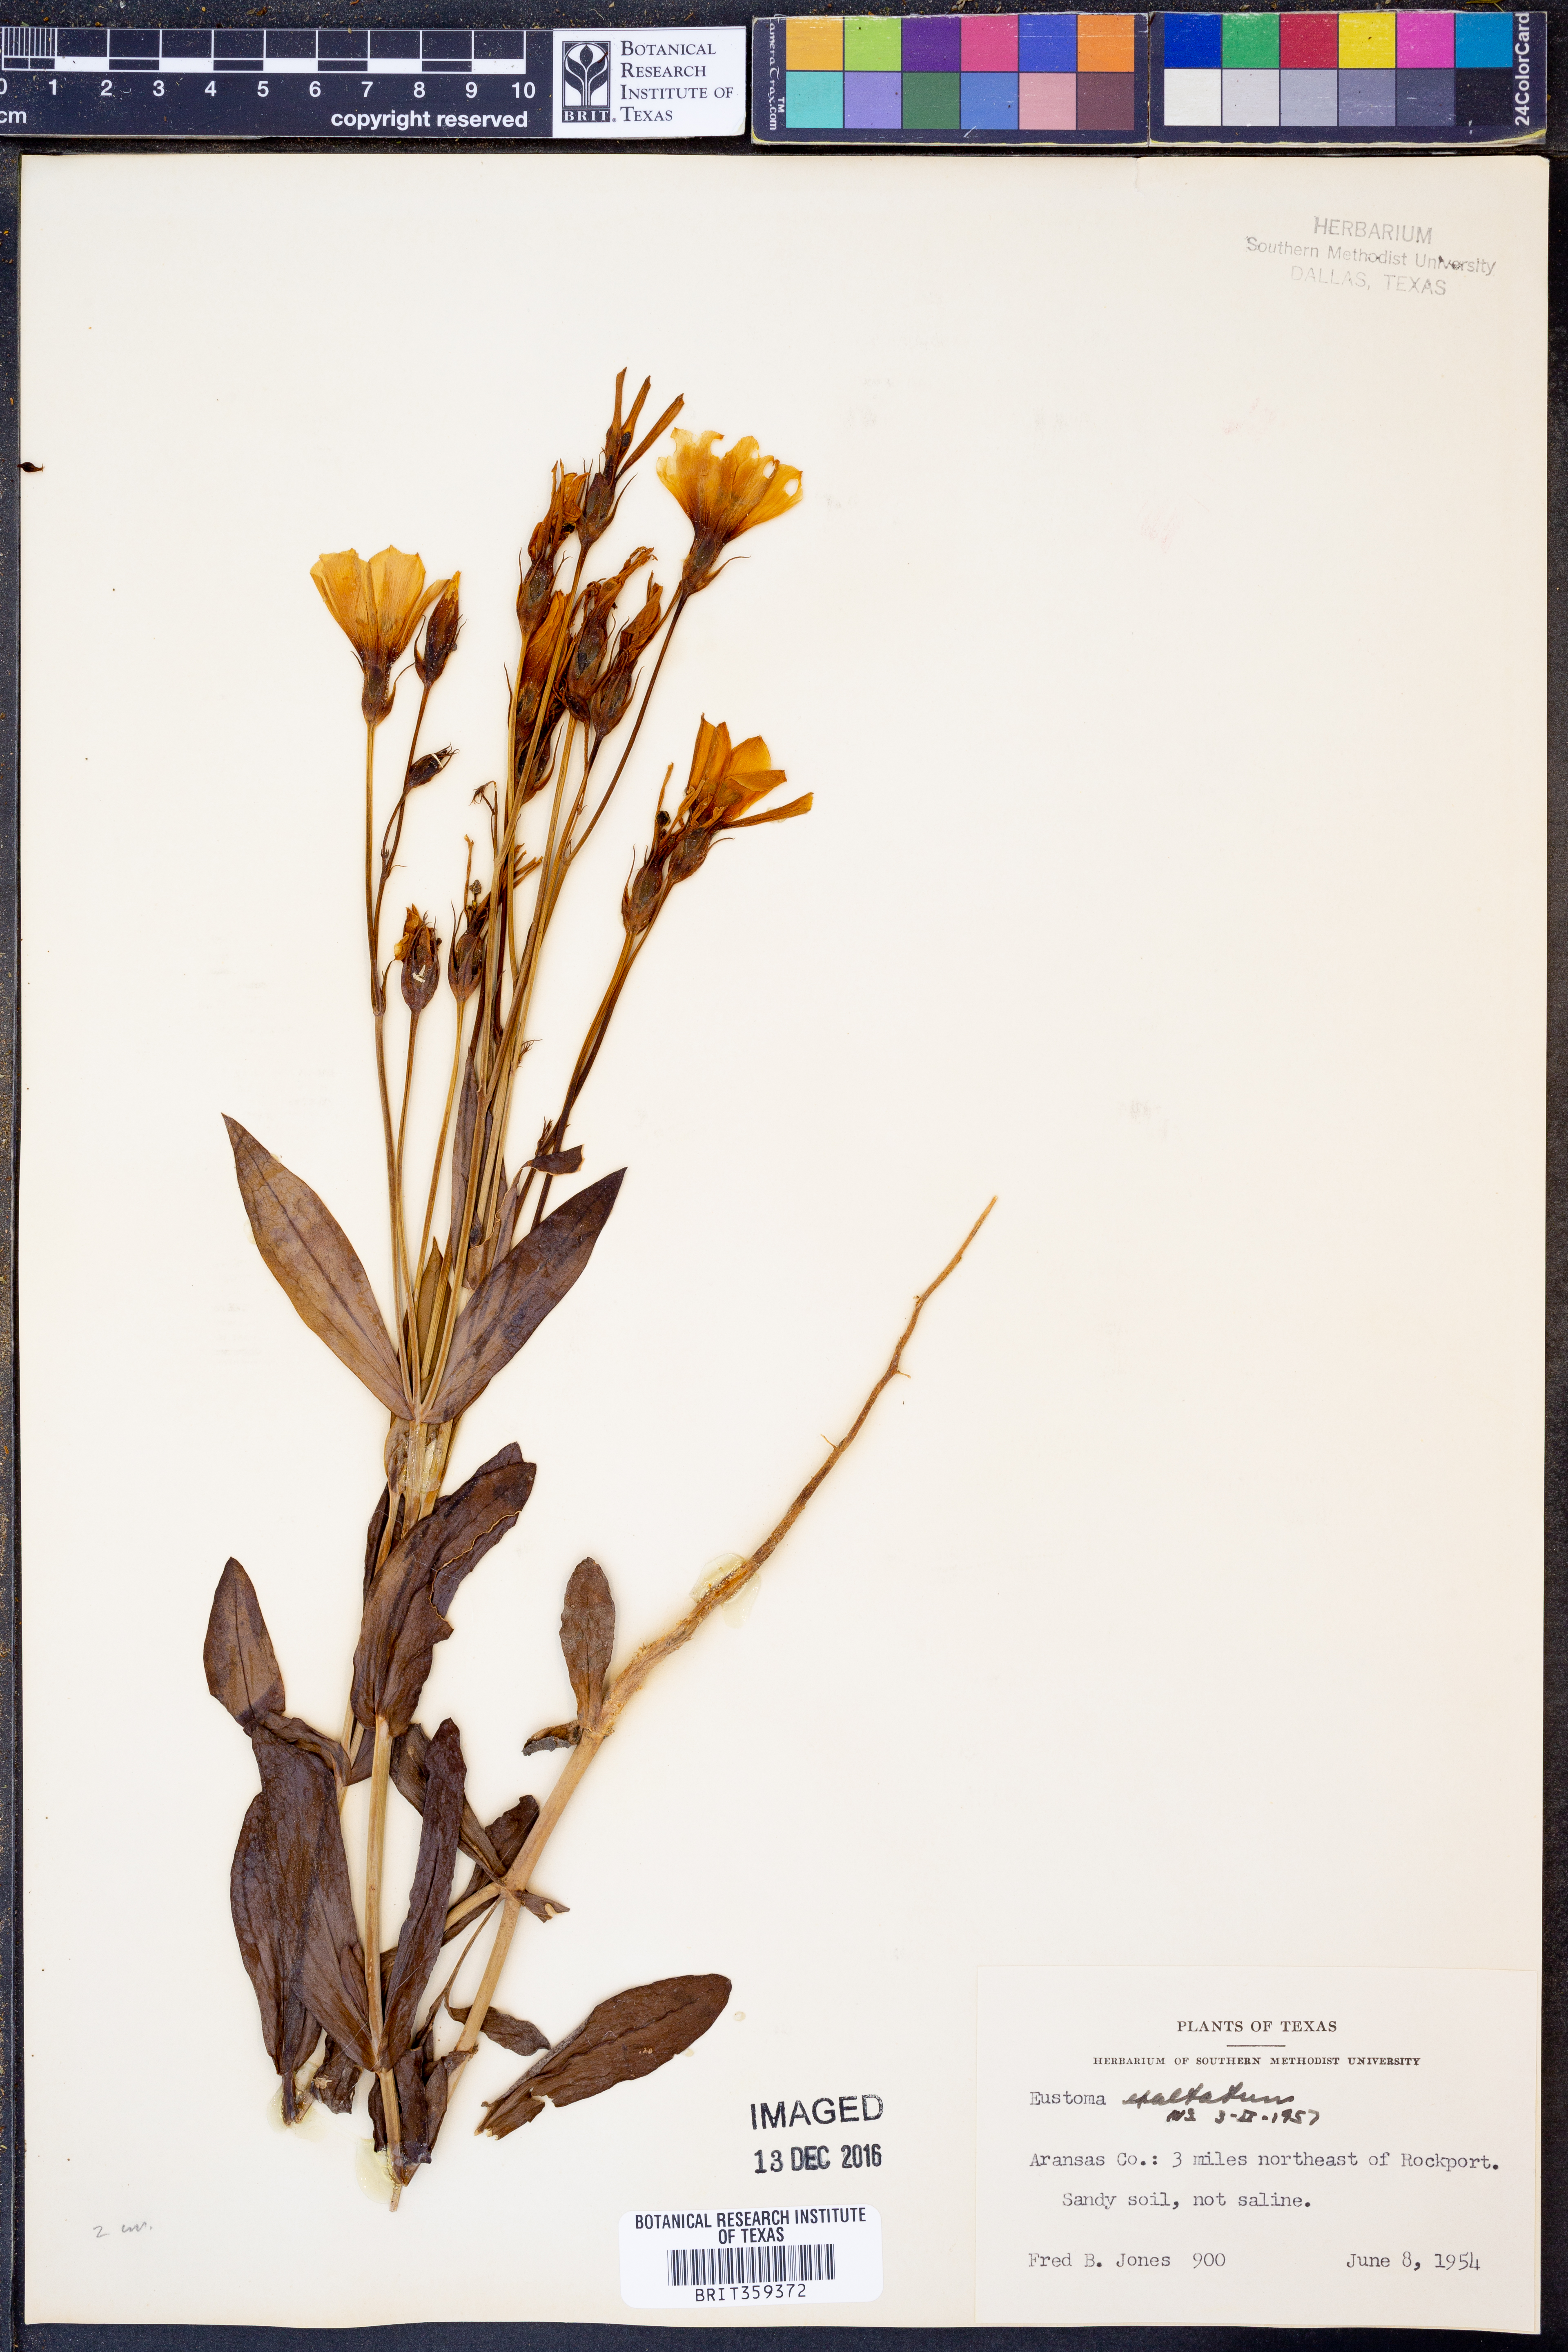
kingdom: Plantae
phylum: Tracheophyta
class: Magnoliopsida
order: Gentianales
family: Gentianaceae
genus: Eustoma
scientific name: Eustoma exaltatum
